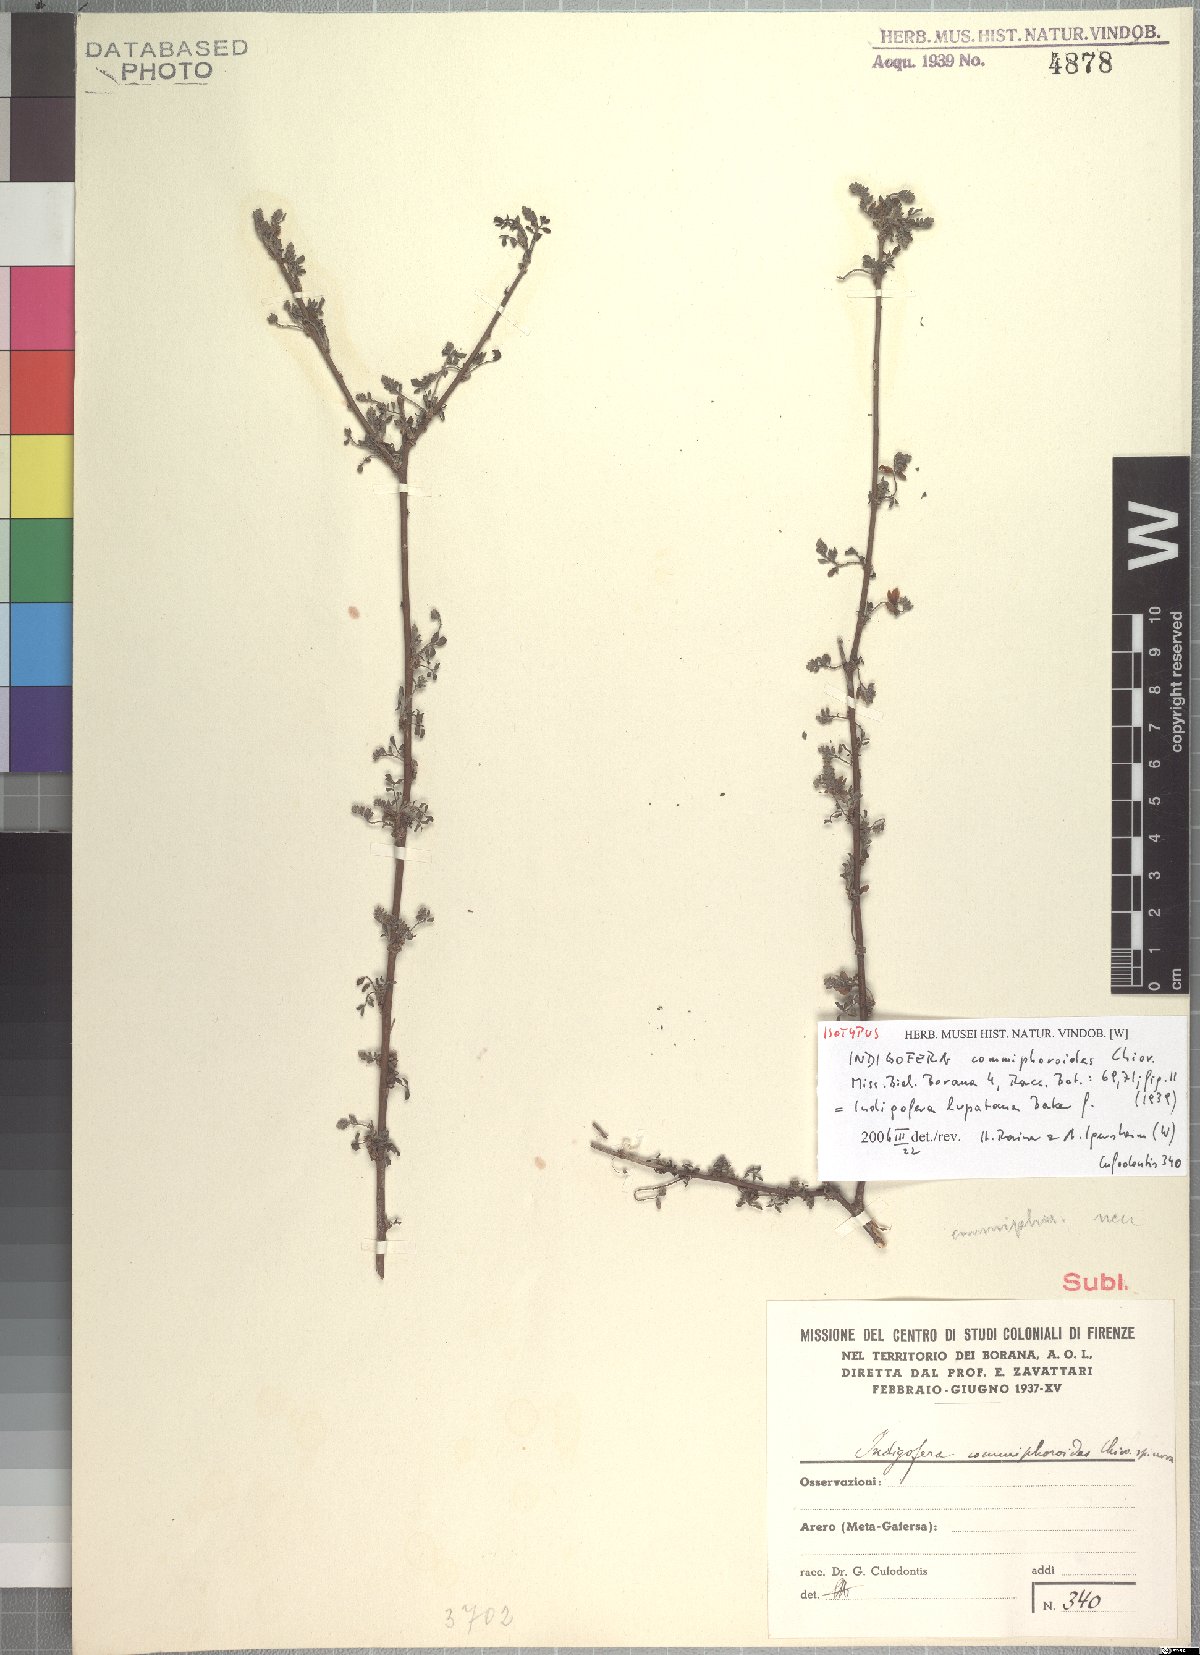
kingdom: Plantae
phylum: Tracheophyta
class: Magnoliopsida
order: Fabales
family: Fabaceae
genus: Indigofera
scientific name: Indigofera lupatana
